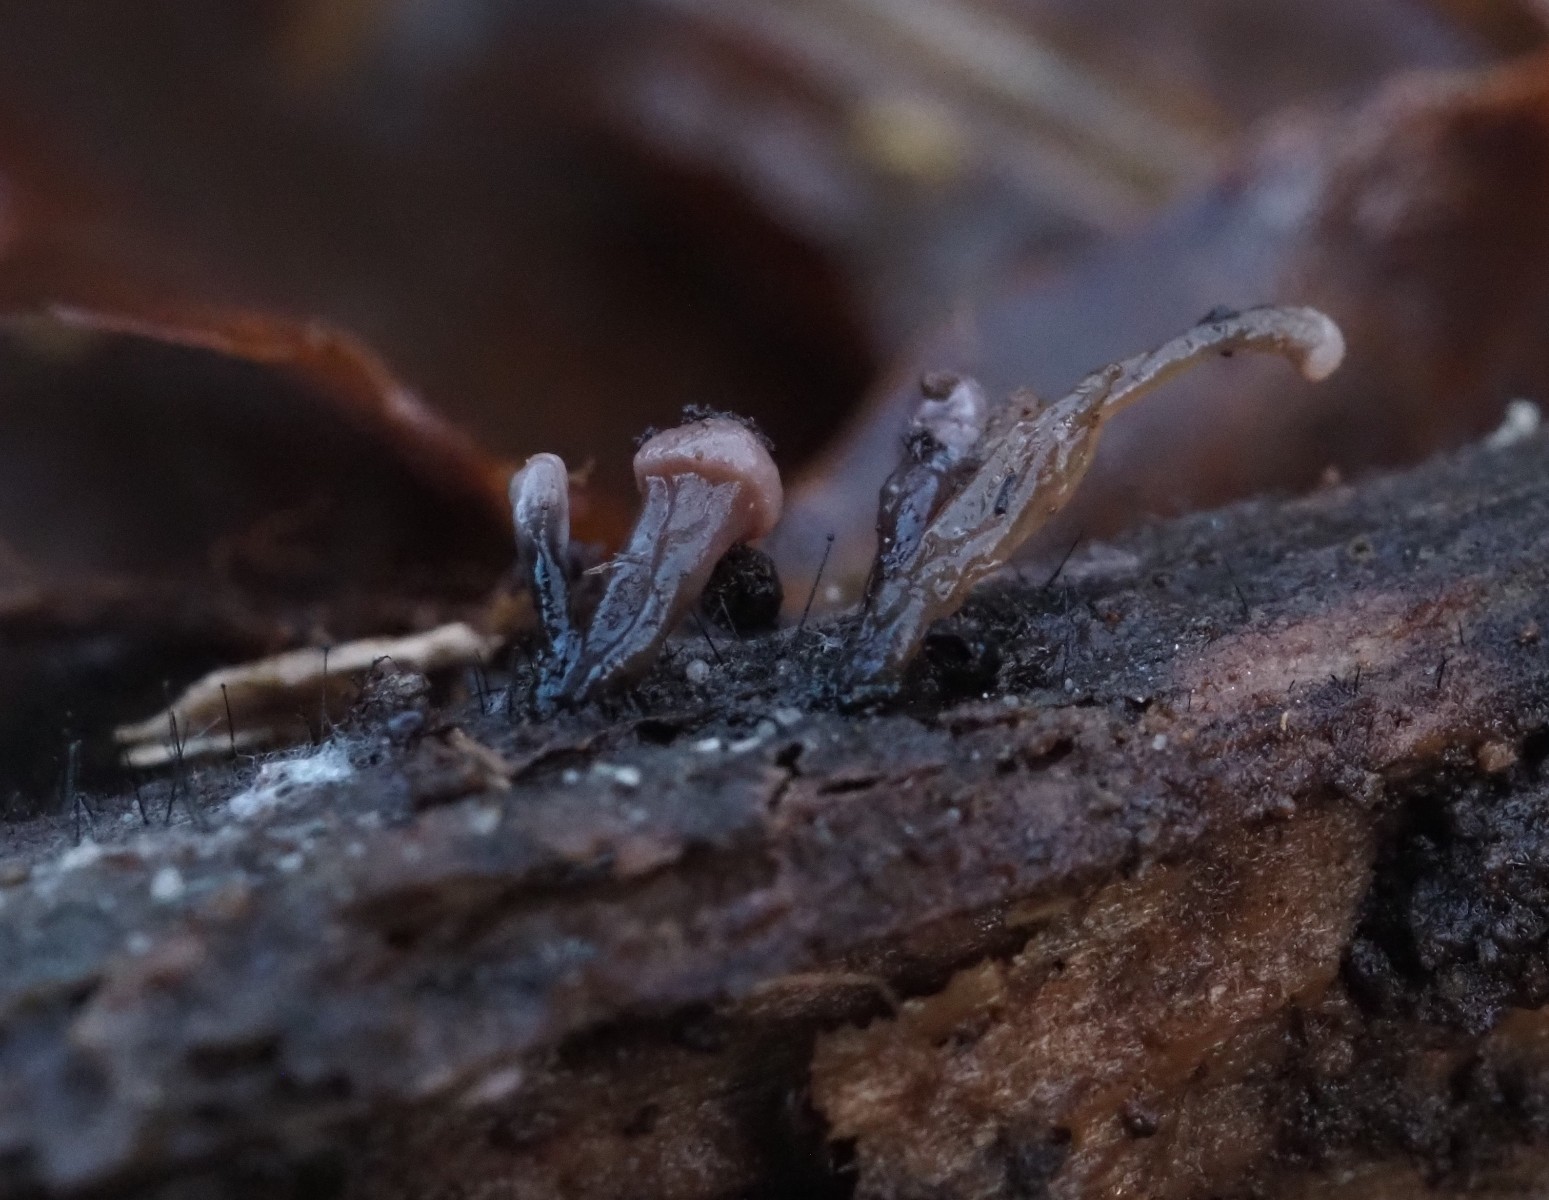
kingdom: Fungi
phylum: Ascomycota
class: Leotiomycetes
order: Helotiales
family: Gelatinodiscaceae
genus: Ascocoryne
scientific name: Ascocoryne albida
